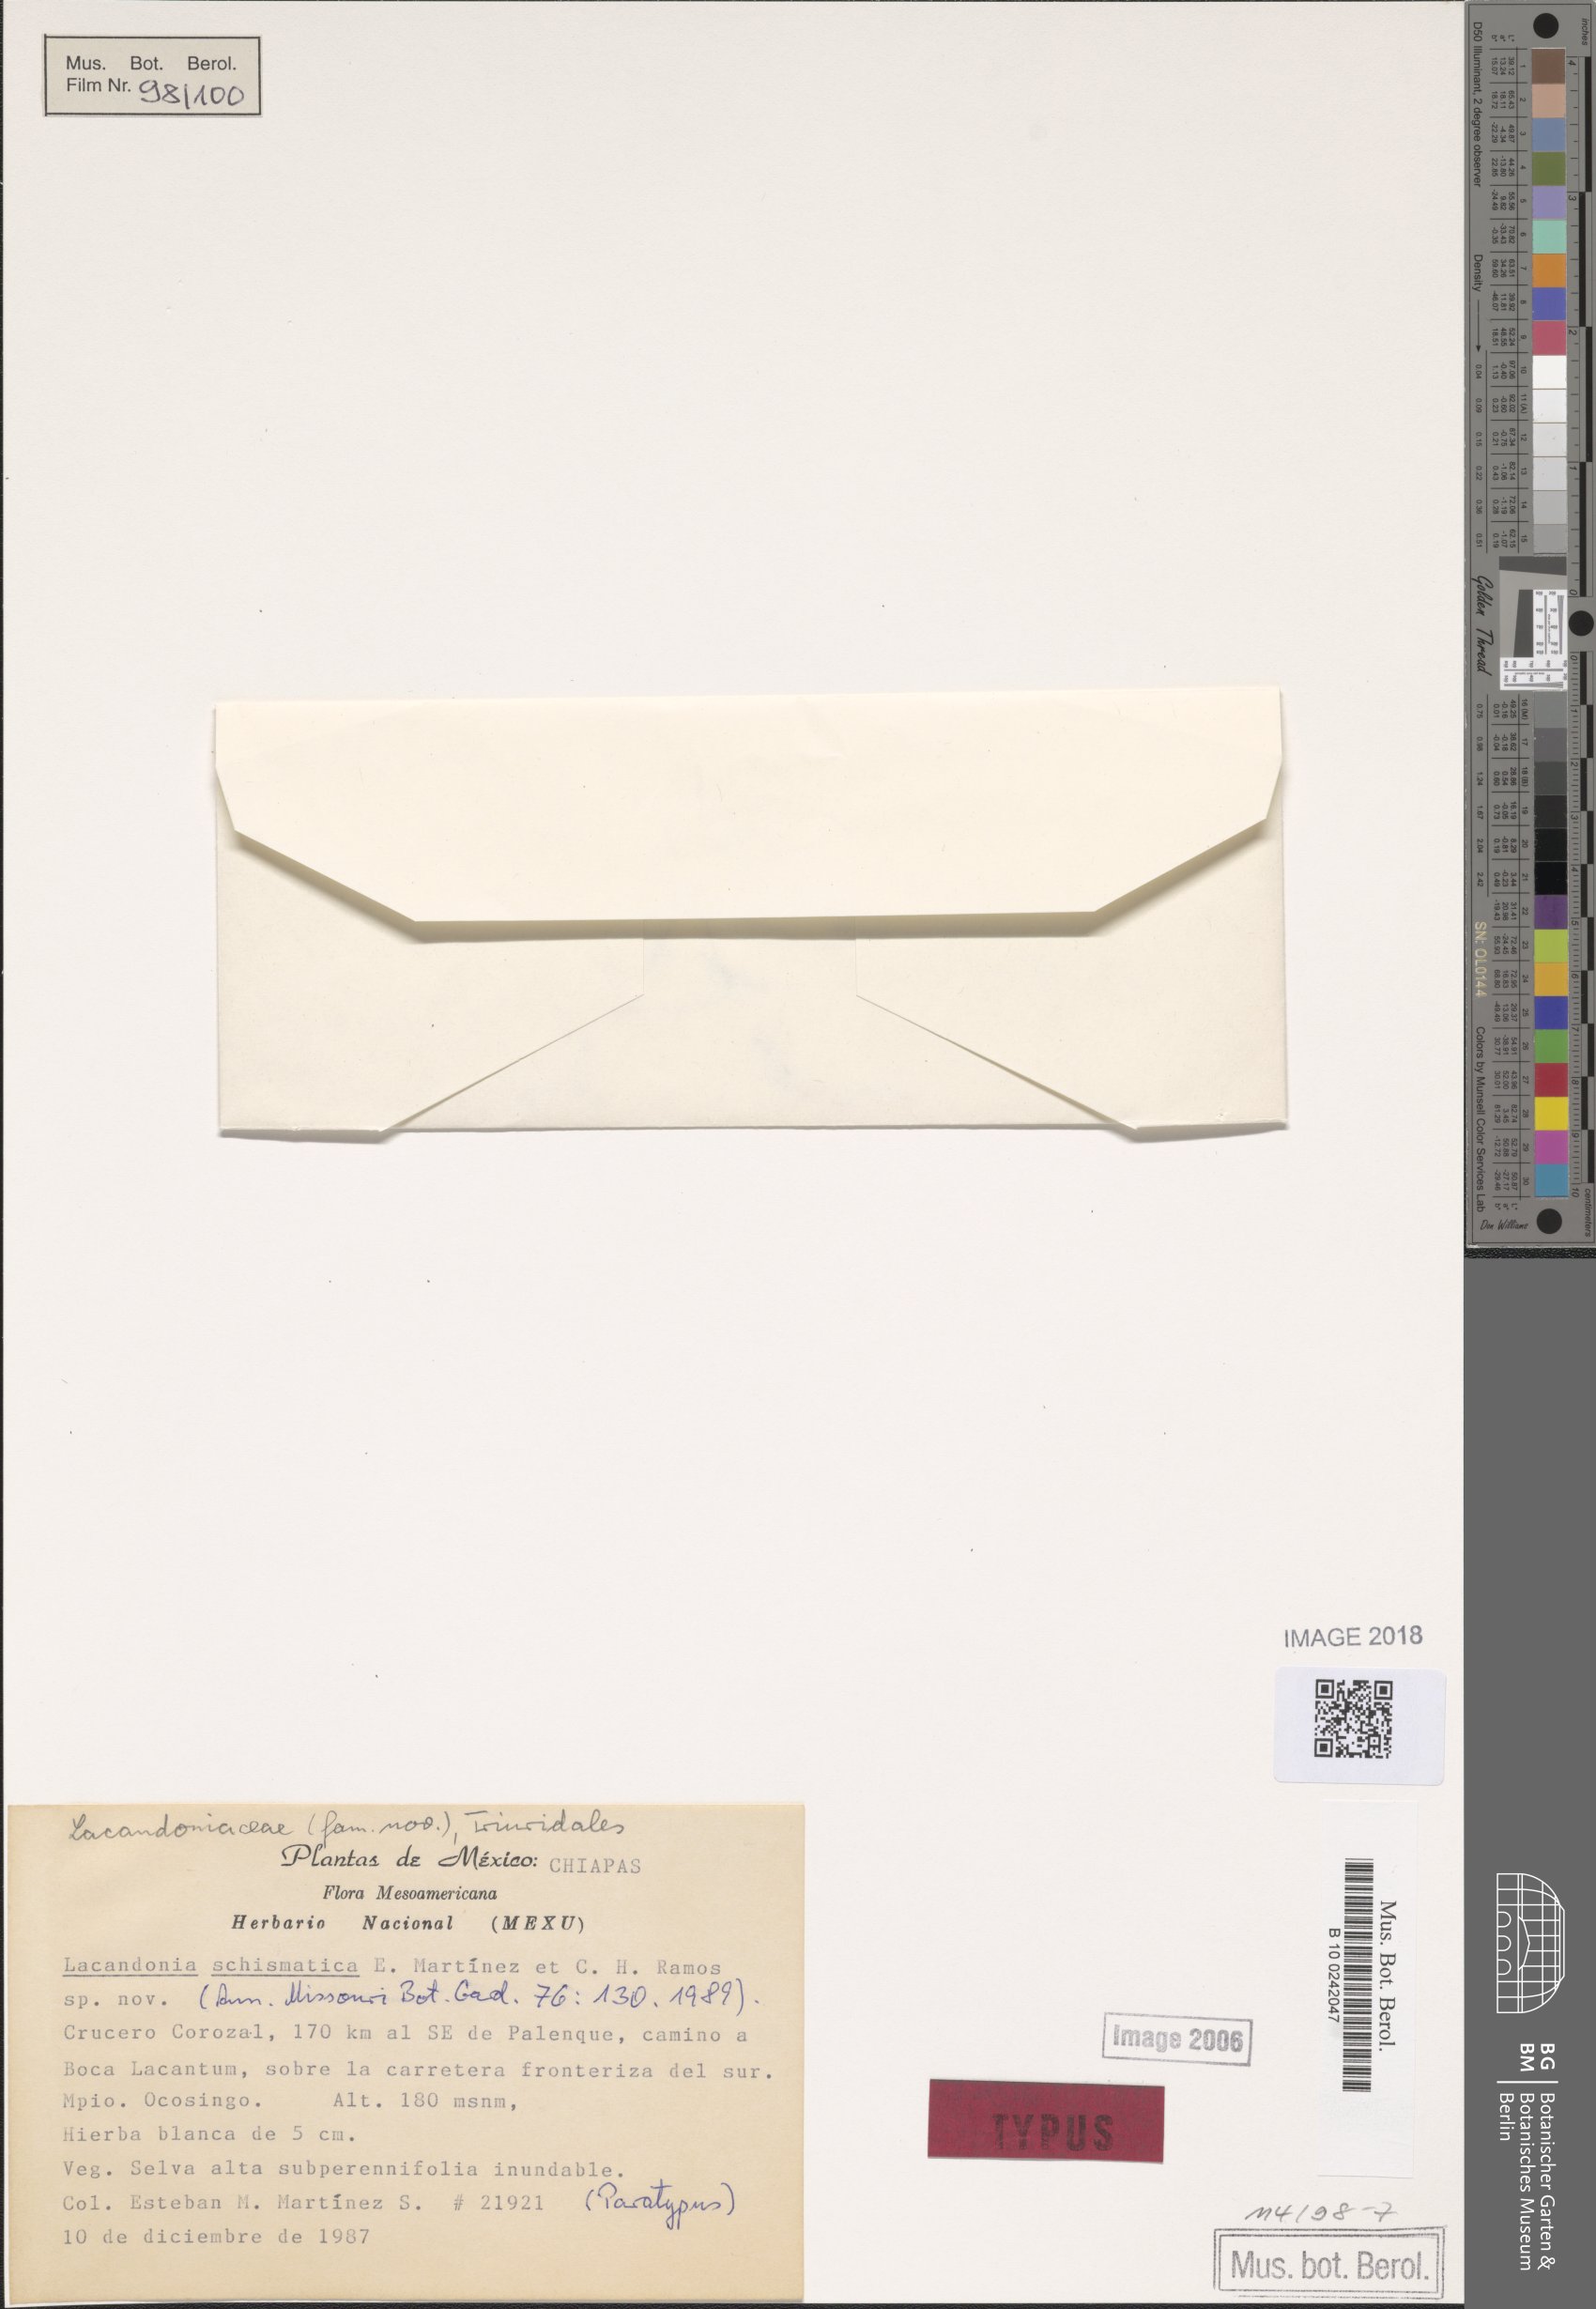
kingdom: Plantae
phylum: Tracheophyta
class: Liliopsida
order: Pandanales
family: Triuridaceae
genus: Lacandonia
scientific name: Lacandonia schismatica
